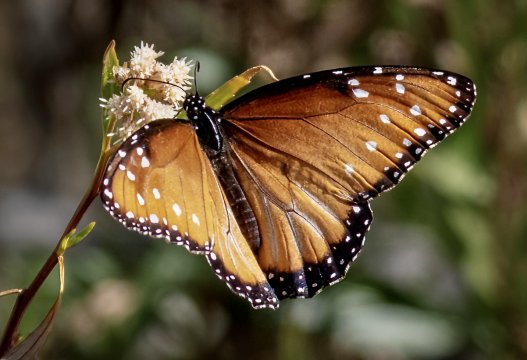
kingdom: Animalia
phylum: Arthropoda
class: Insecta
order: Lepidoptera
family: Nymphalidae
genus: Danaus
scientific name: Danaus gilippus
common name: Queen
